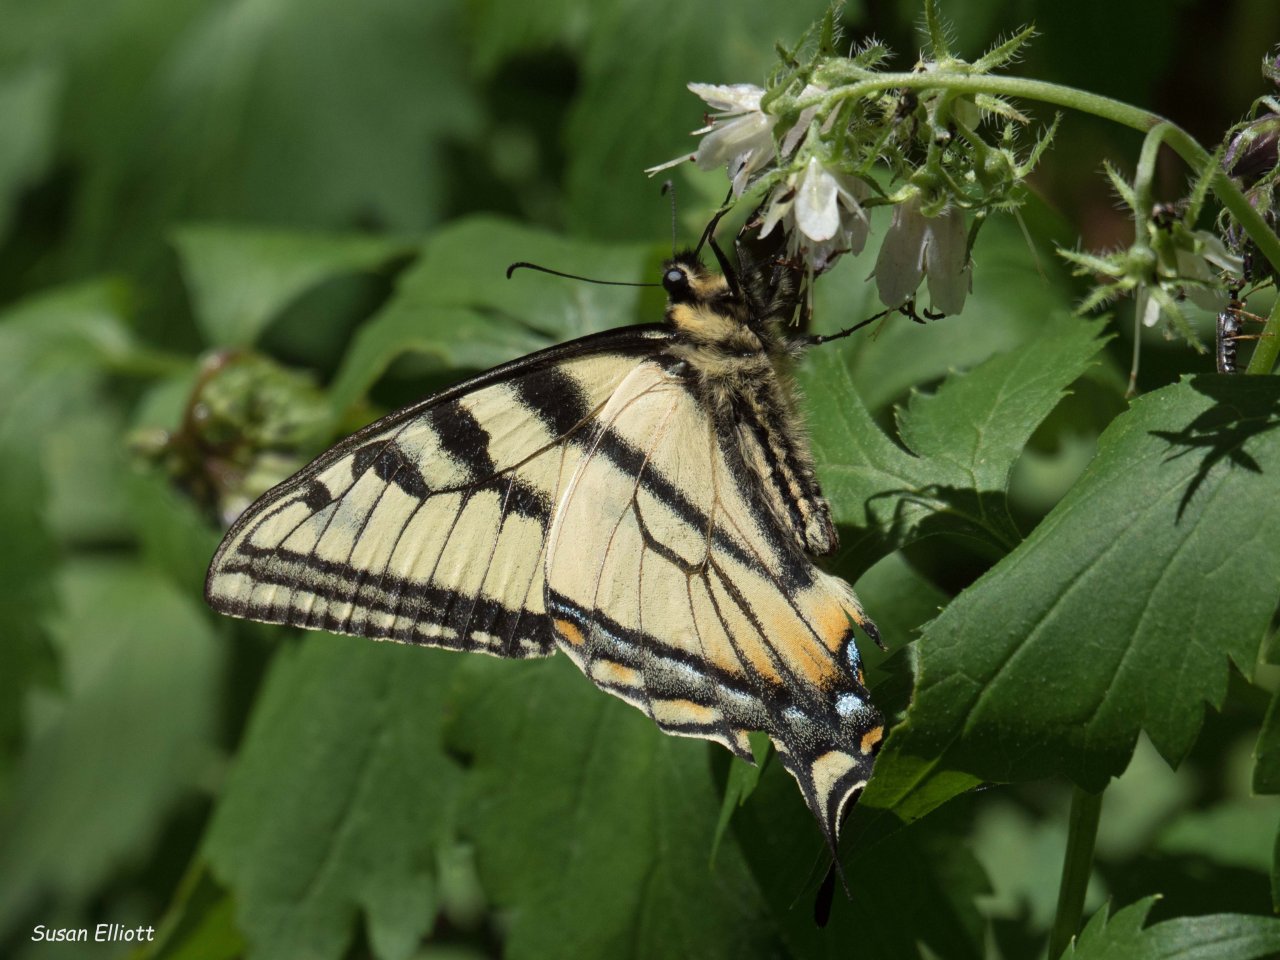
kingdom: Animalia
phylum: Arthropoda
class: Insecta
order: Lepidoptera
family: Papilionidae
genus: Pterourus
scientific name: Pterourus canadensis
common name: Canadian Tiger Swallowtail
